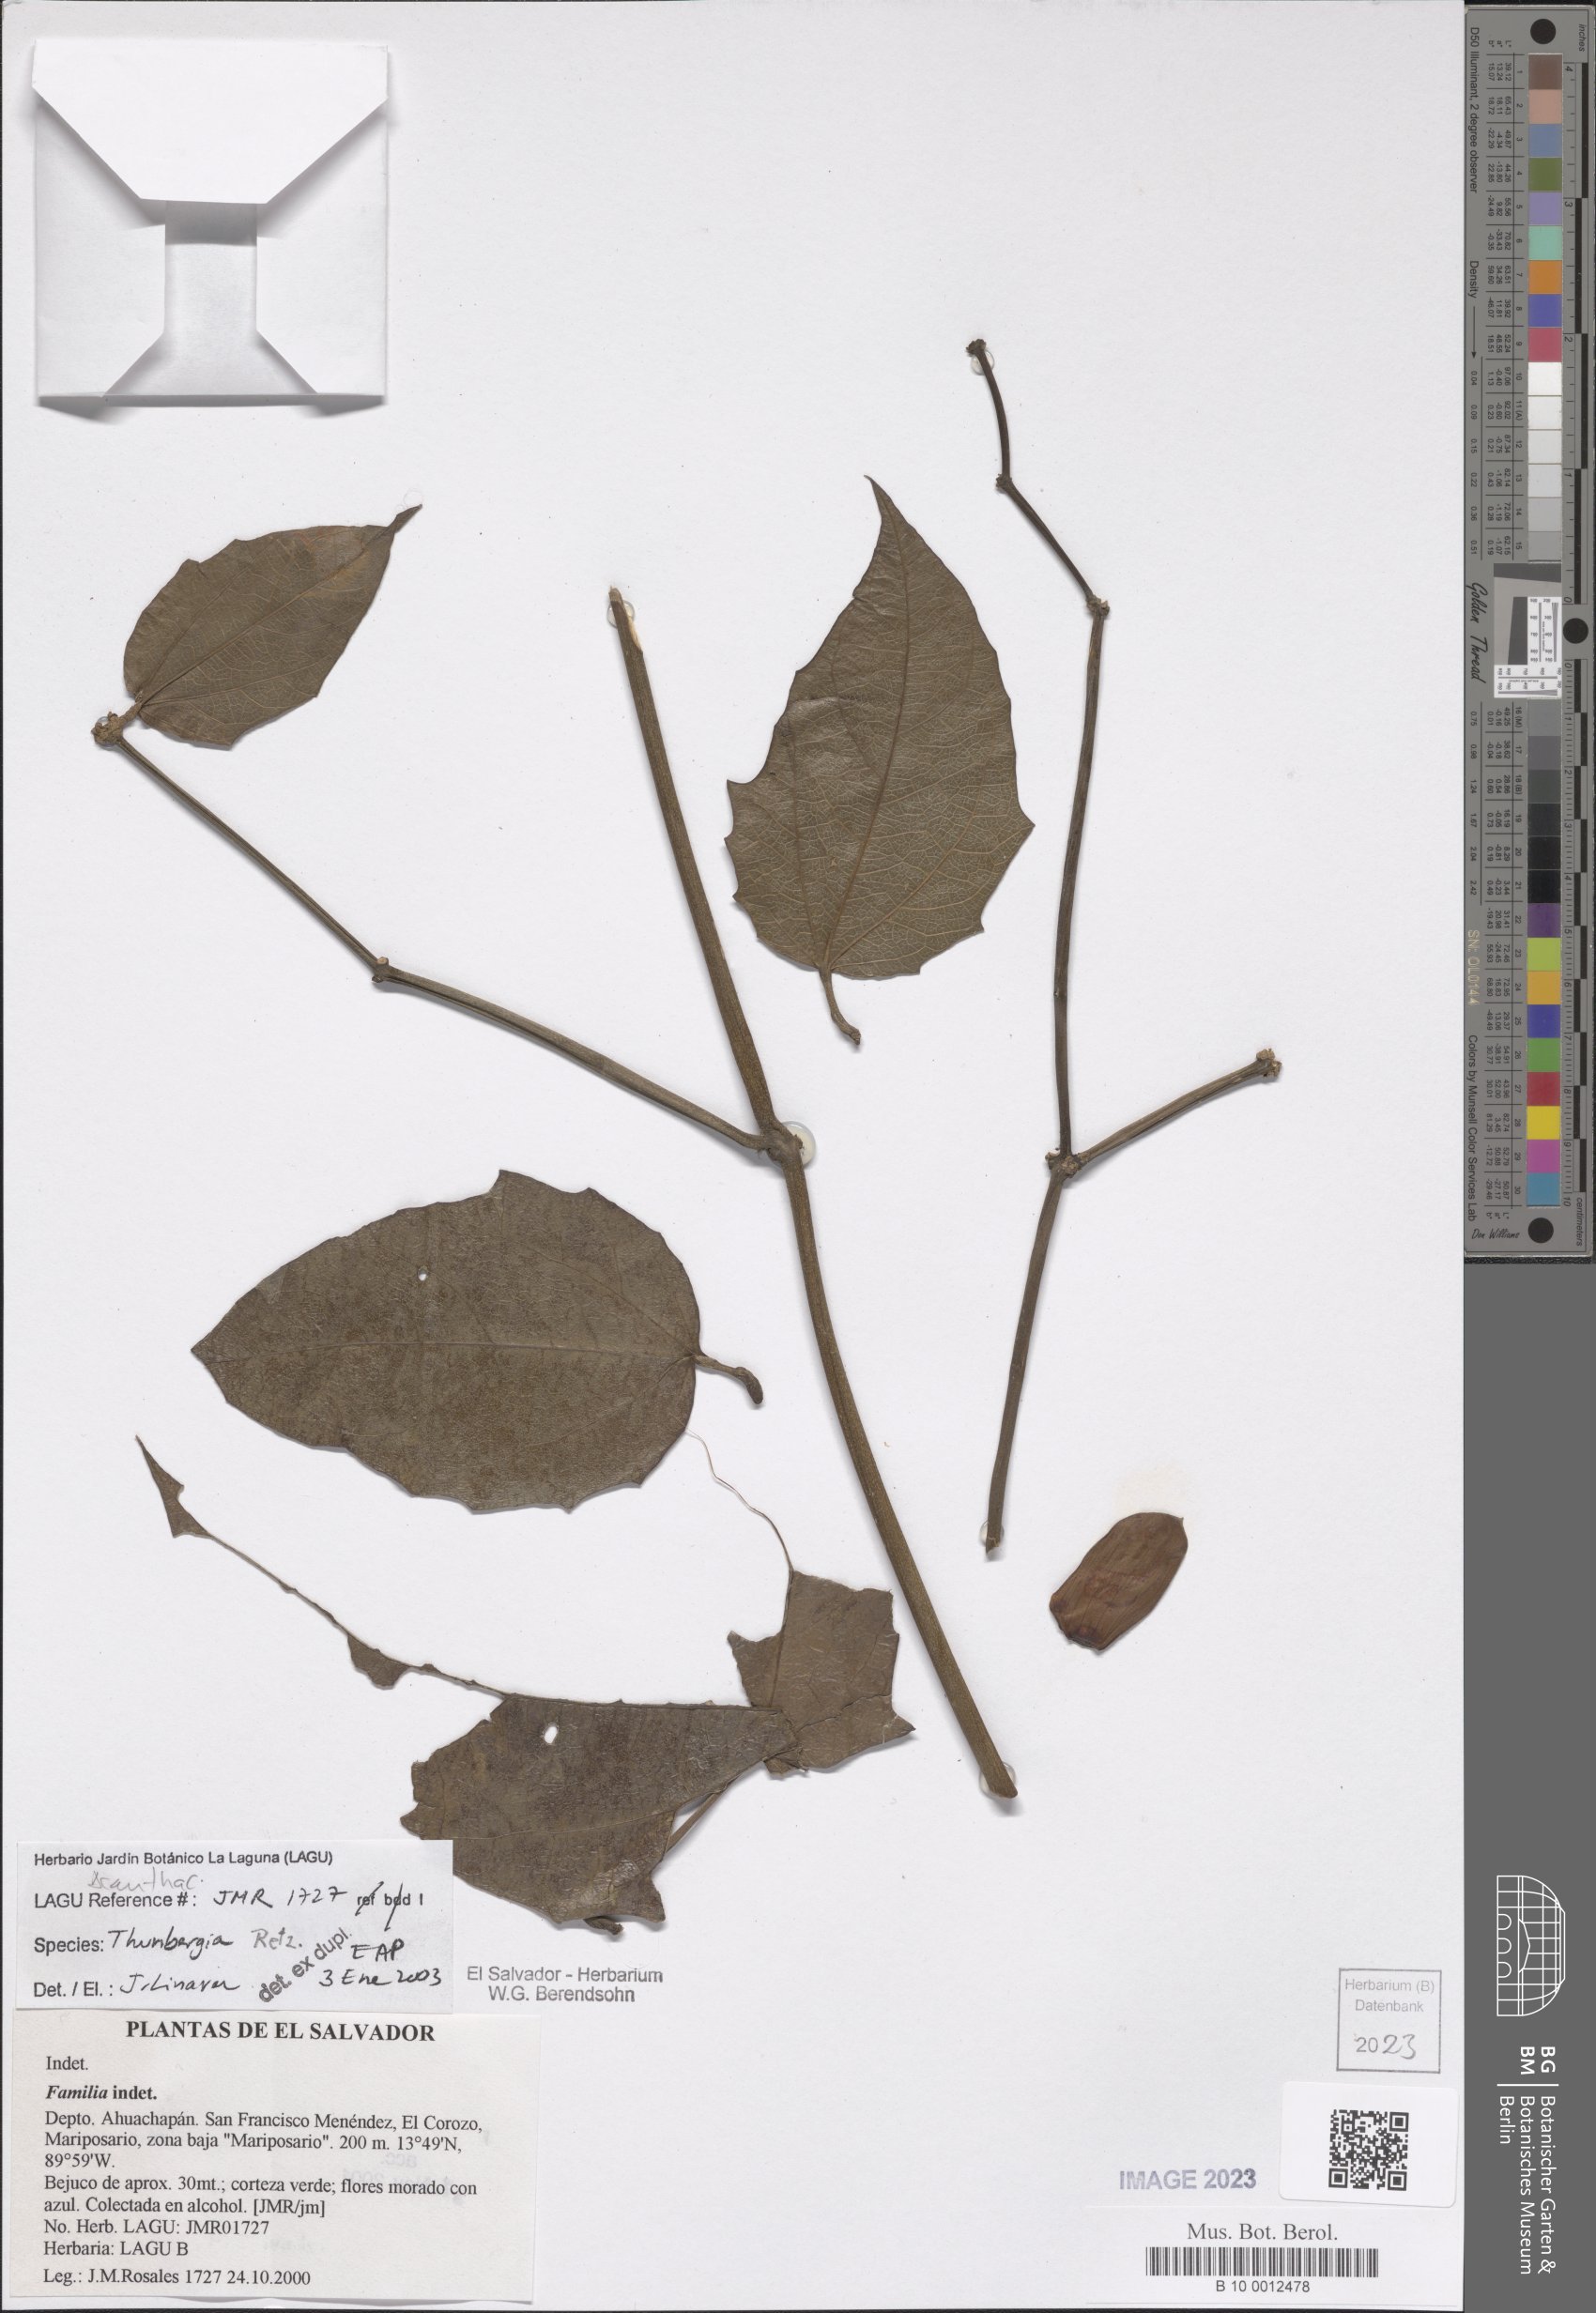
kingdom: Plantae
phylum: Tracheophyta
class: Magnoliopsida
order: Lamiales
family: Acanthaceae
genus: Thunbergia
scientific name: Thunbergia grandiflora
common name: Bengal trumpet
